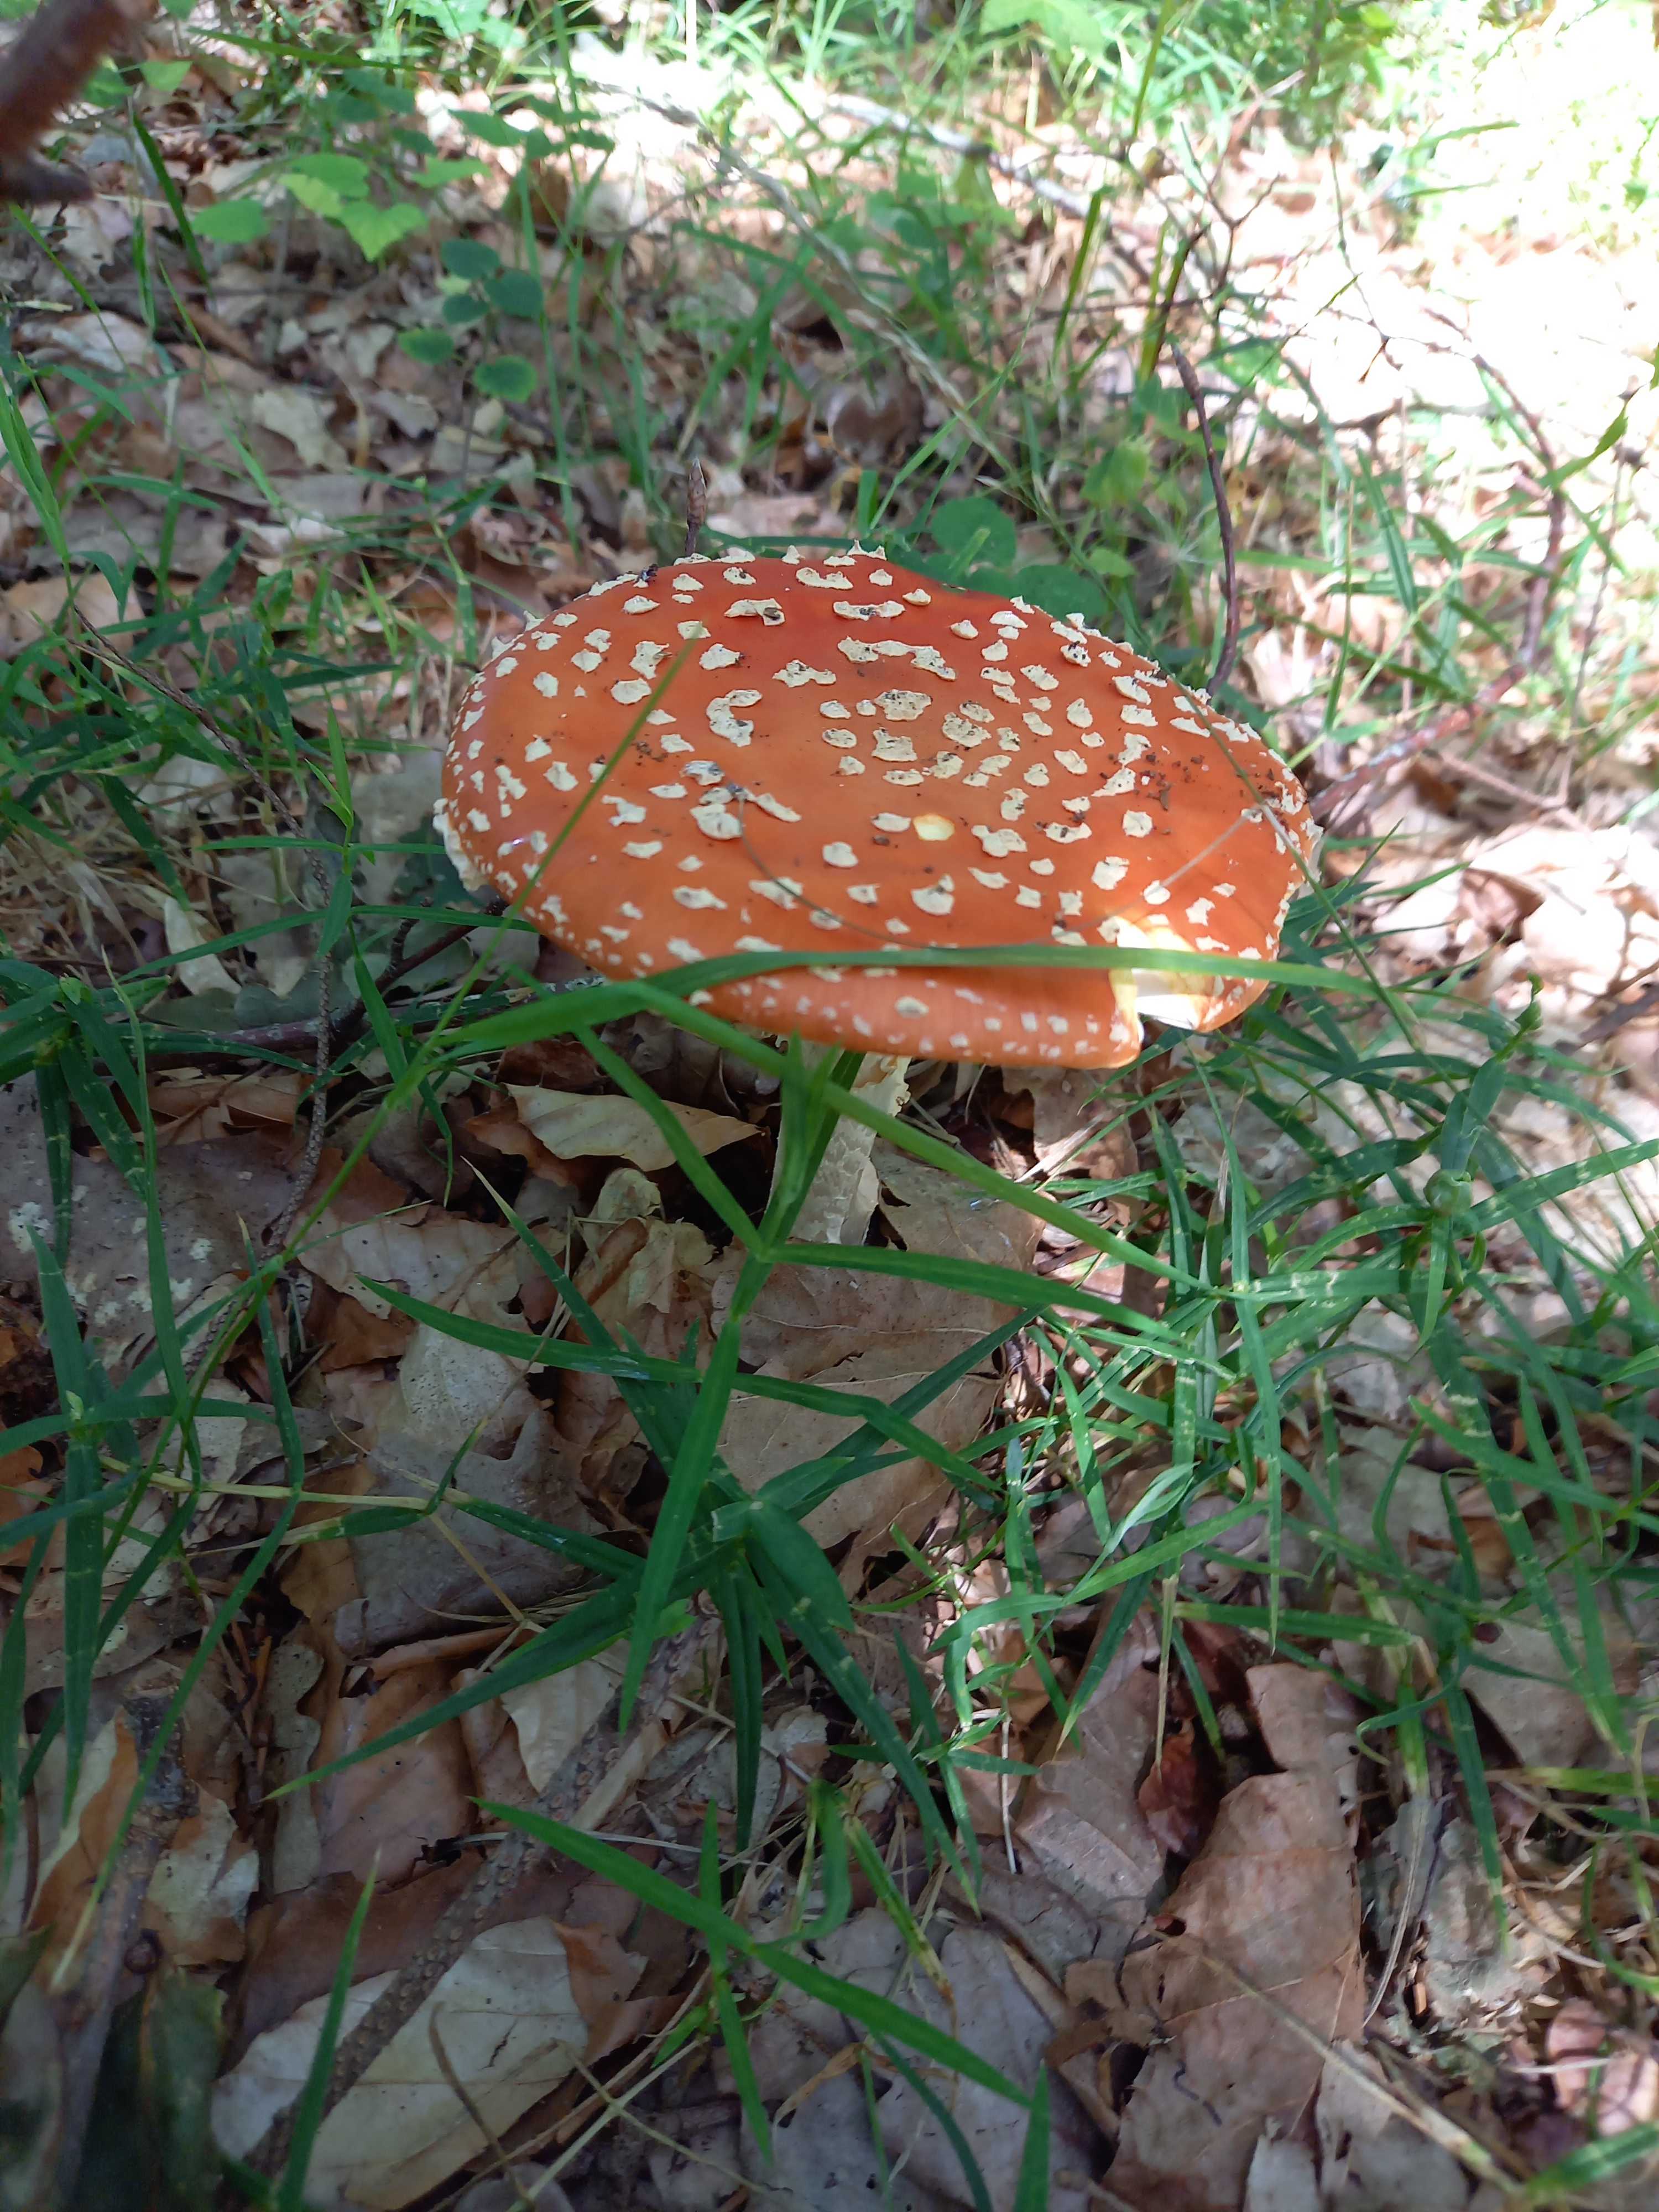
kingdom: Fungi
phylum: Basidiomycota
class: Agaricomycetes
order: Agaricales
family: Amanitaceae
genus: Amanita
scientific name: Amanita muscaria
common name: rød fluesvamp
